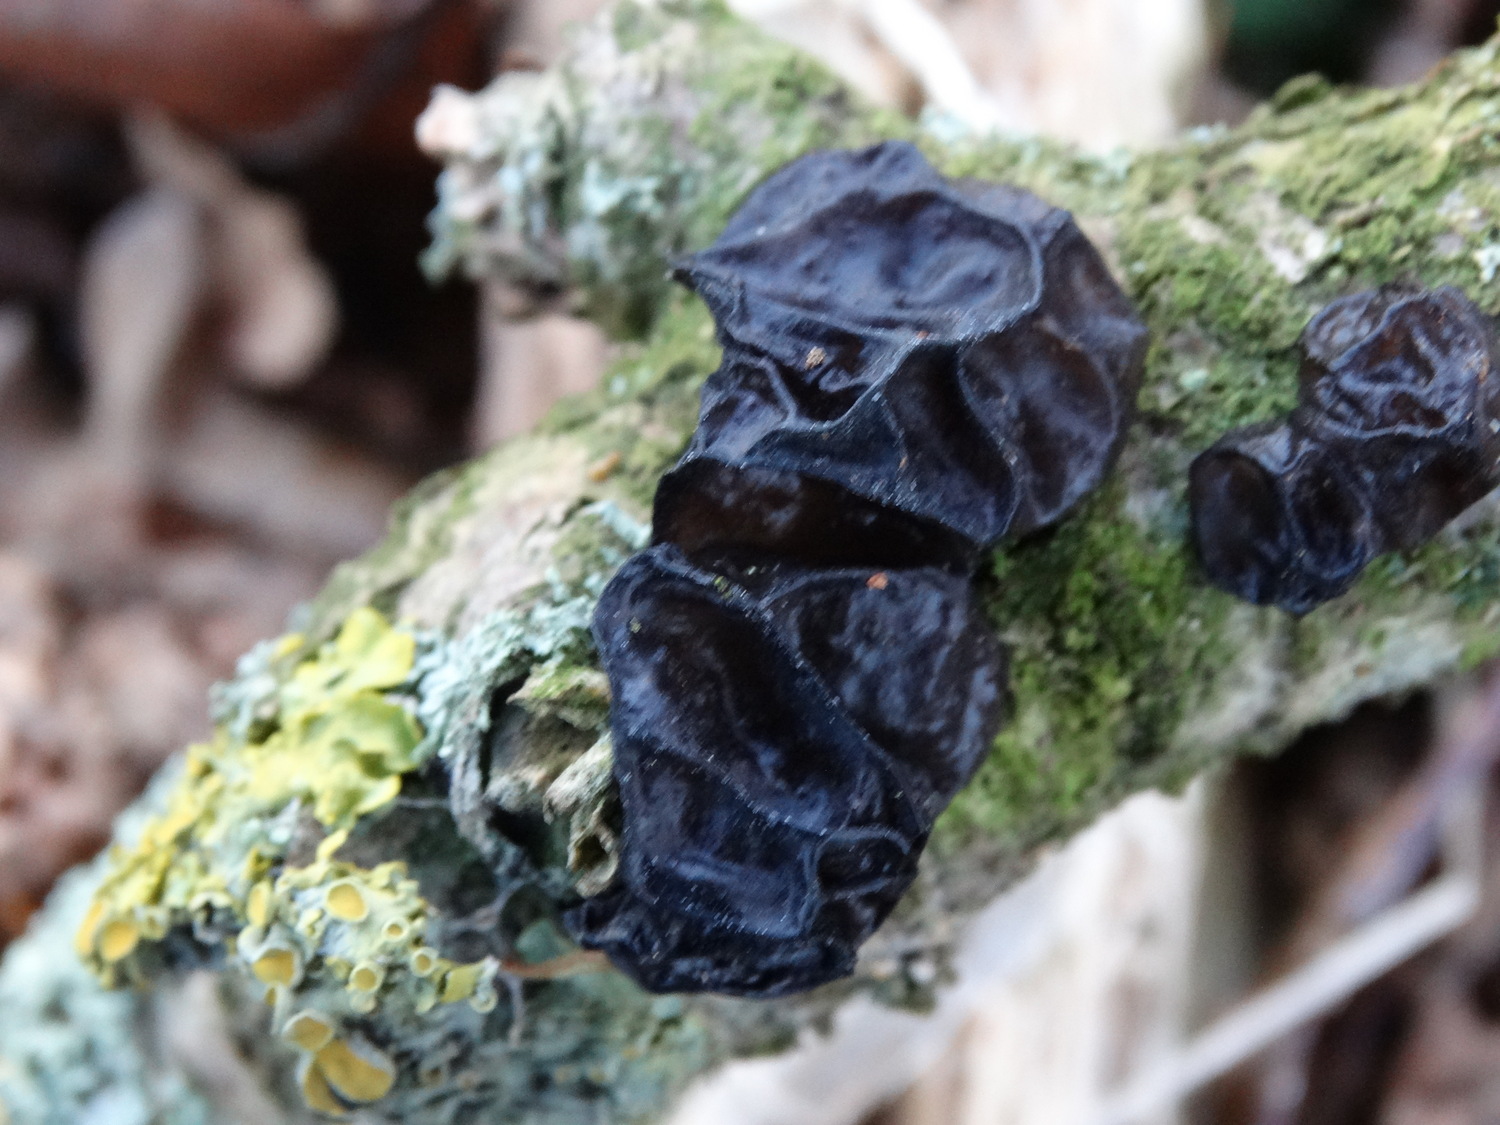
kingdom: Fungi
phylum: Basidiomycota
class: Agaricomycetes
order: Auriculariales
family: Auriculariaceae
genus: Exidia
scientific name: Exidia glandulosa
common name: ege-bævretop
